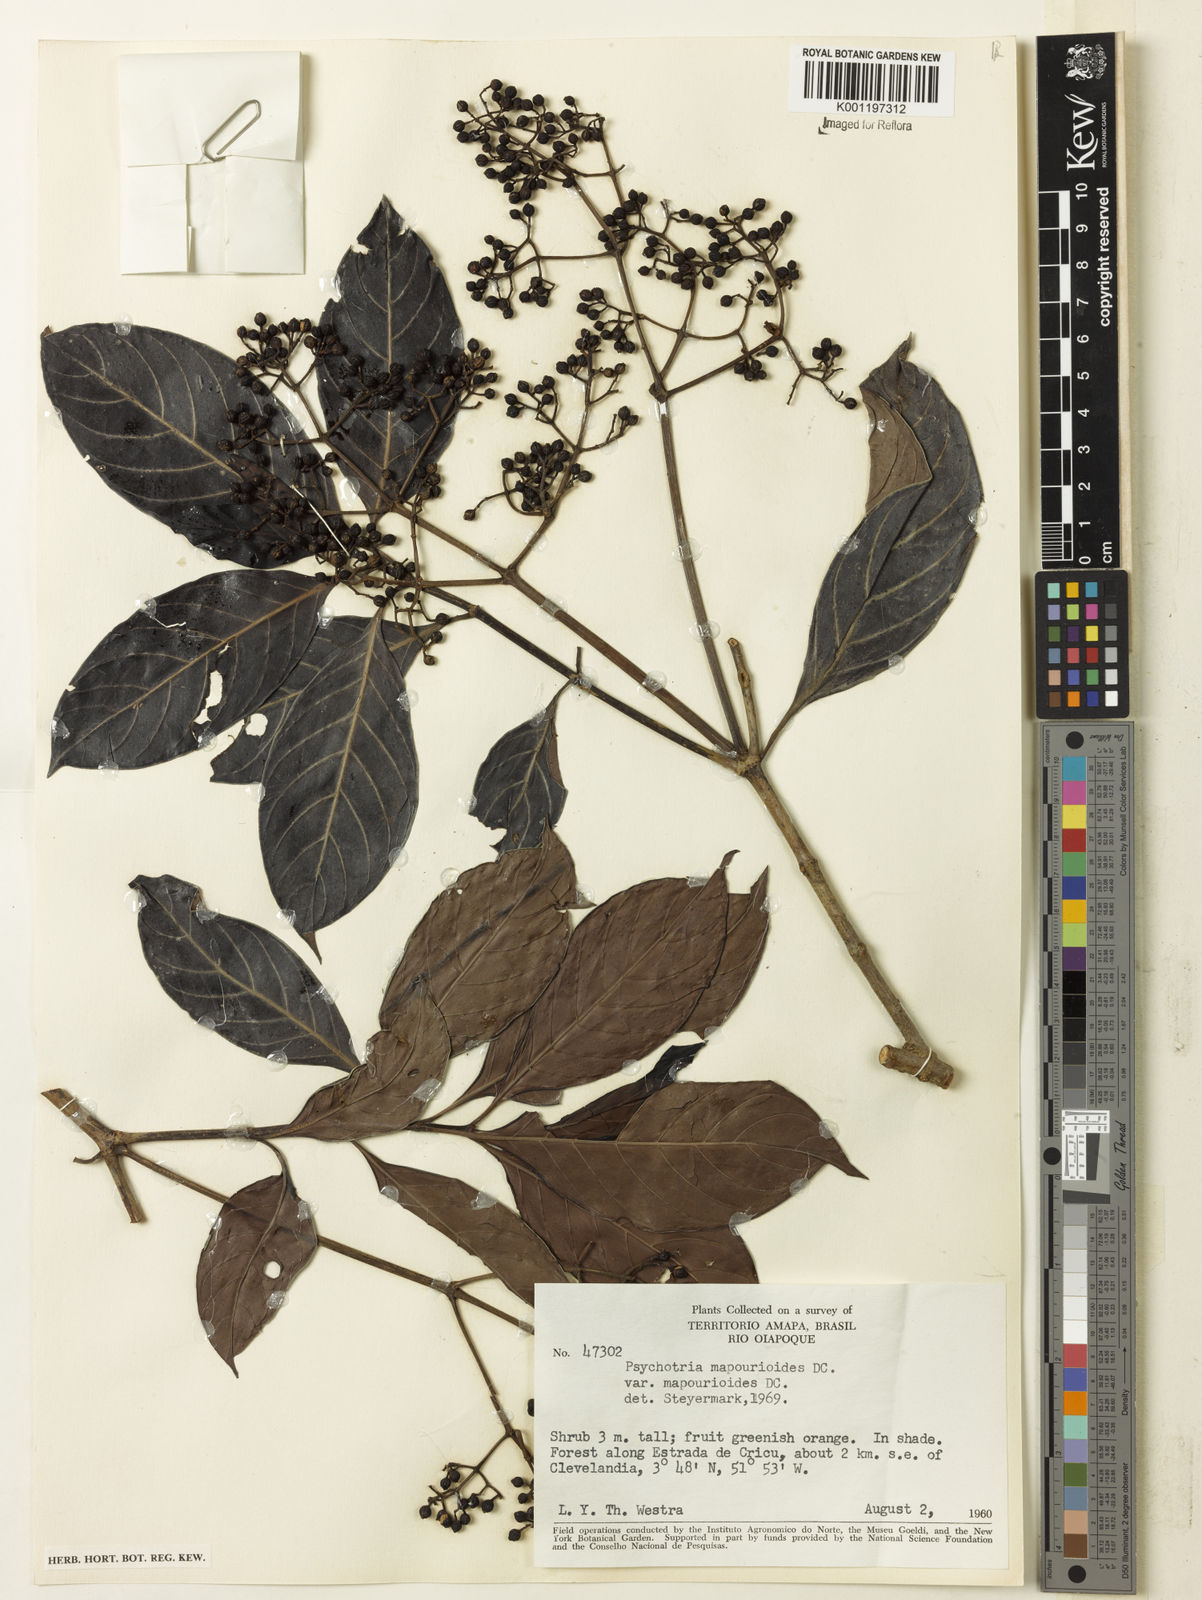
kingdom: Plantae
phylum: Tracheophyta
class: Magnoliopsida
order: Gentianales
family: Rubiaceae
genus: Psychotria
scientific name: Psychotria pedunculosa
